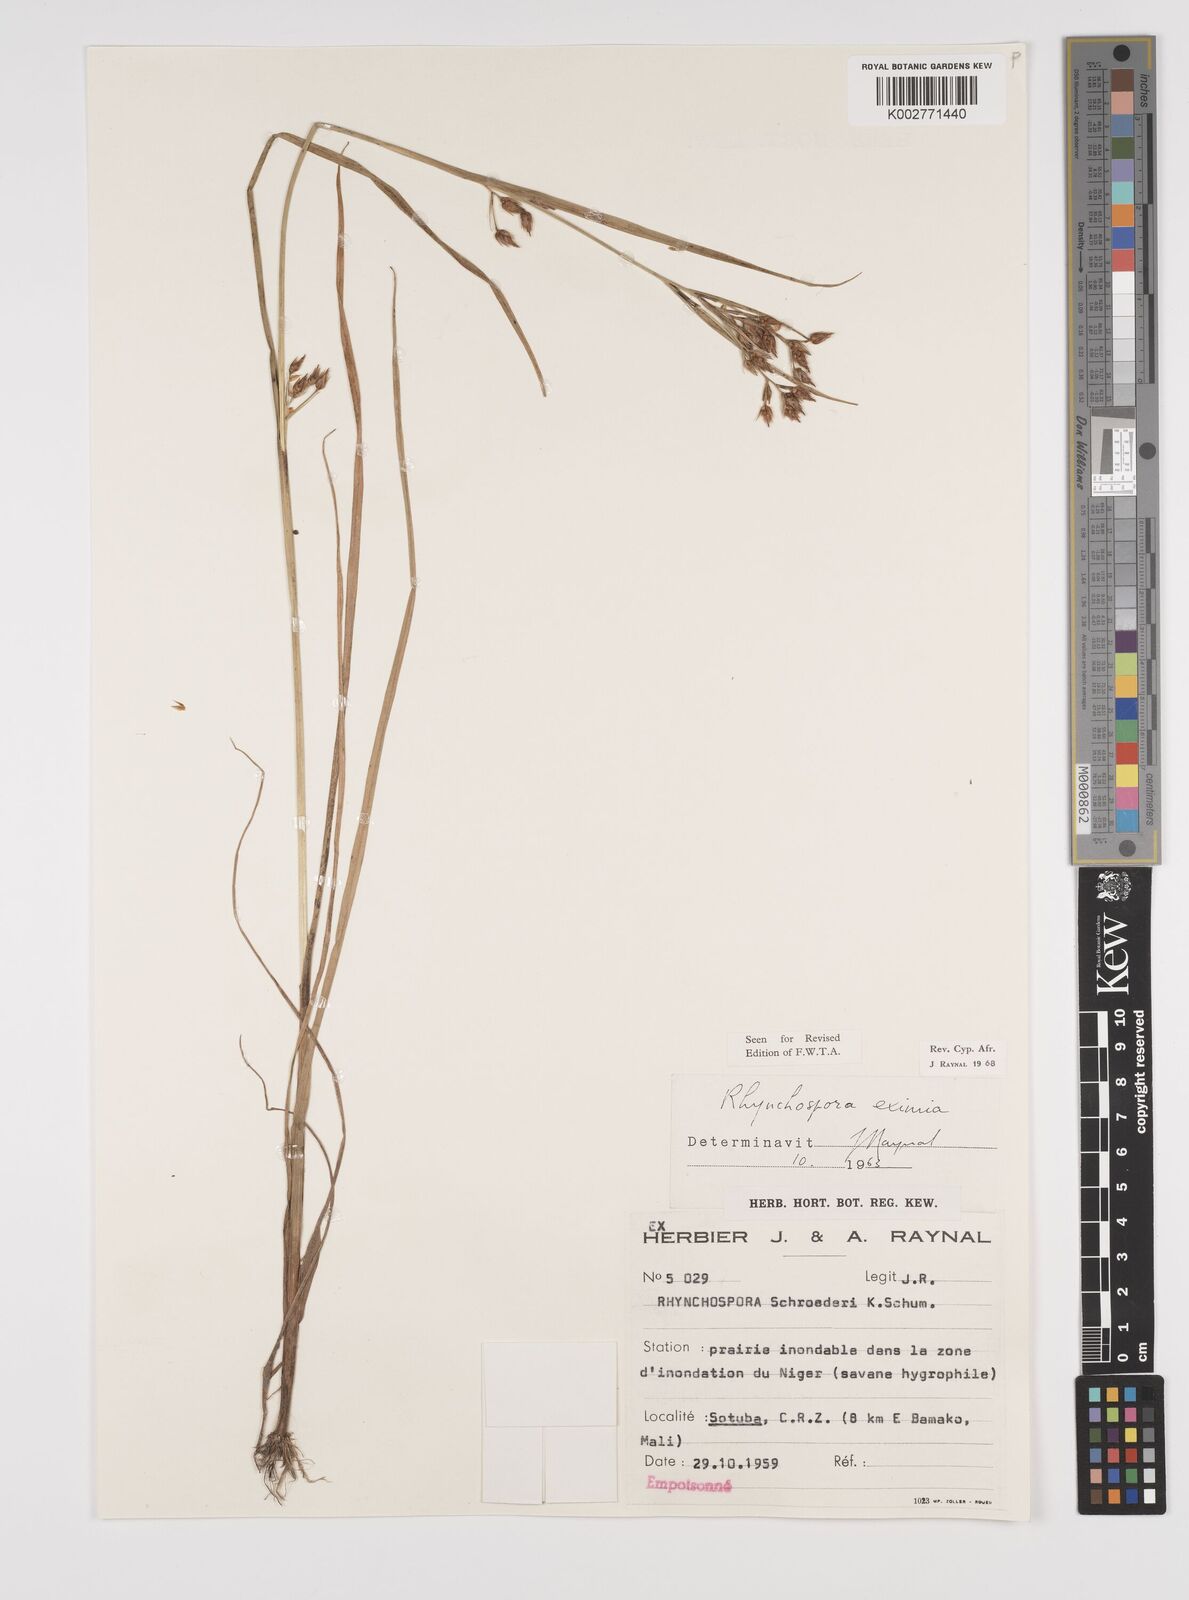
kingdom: Plantae
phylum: Tracheophyta
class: Liliopsida
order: Poales
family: Cyperaceae
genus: Rhynchospora
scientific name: Rhynchospora eximia
